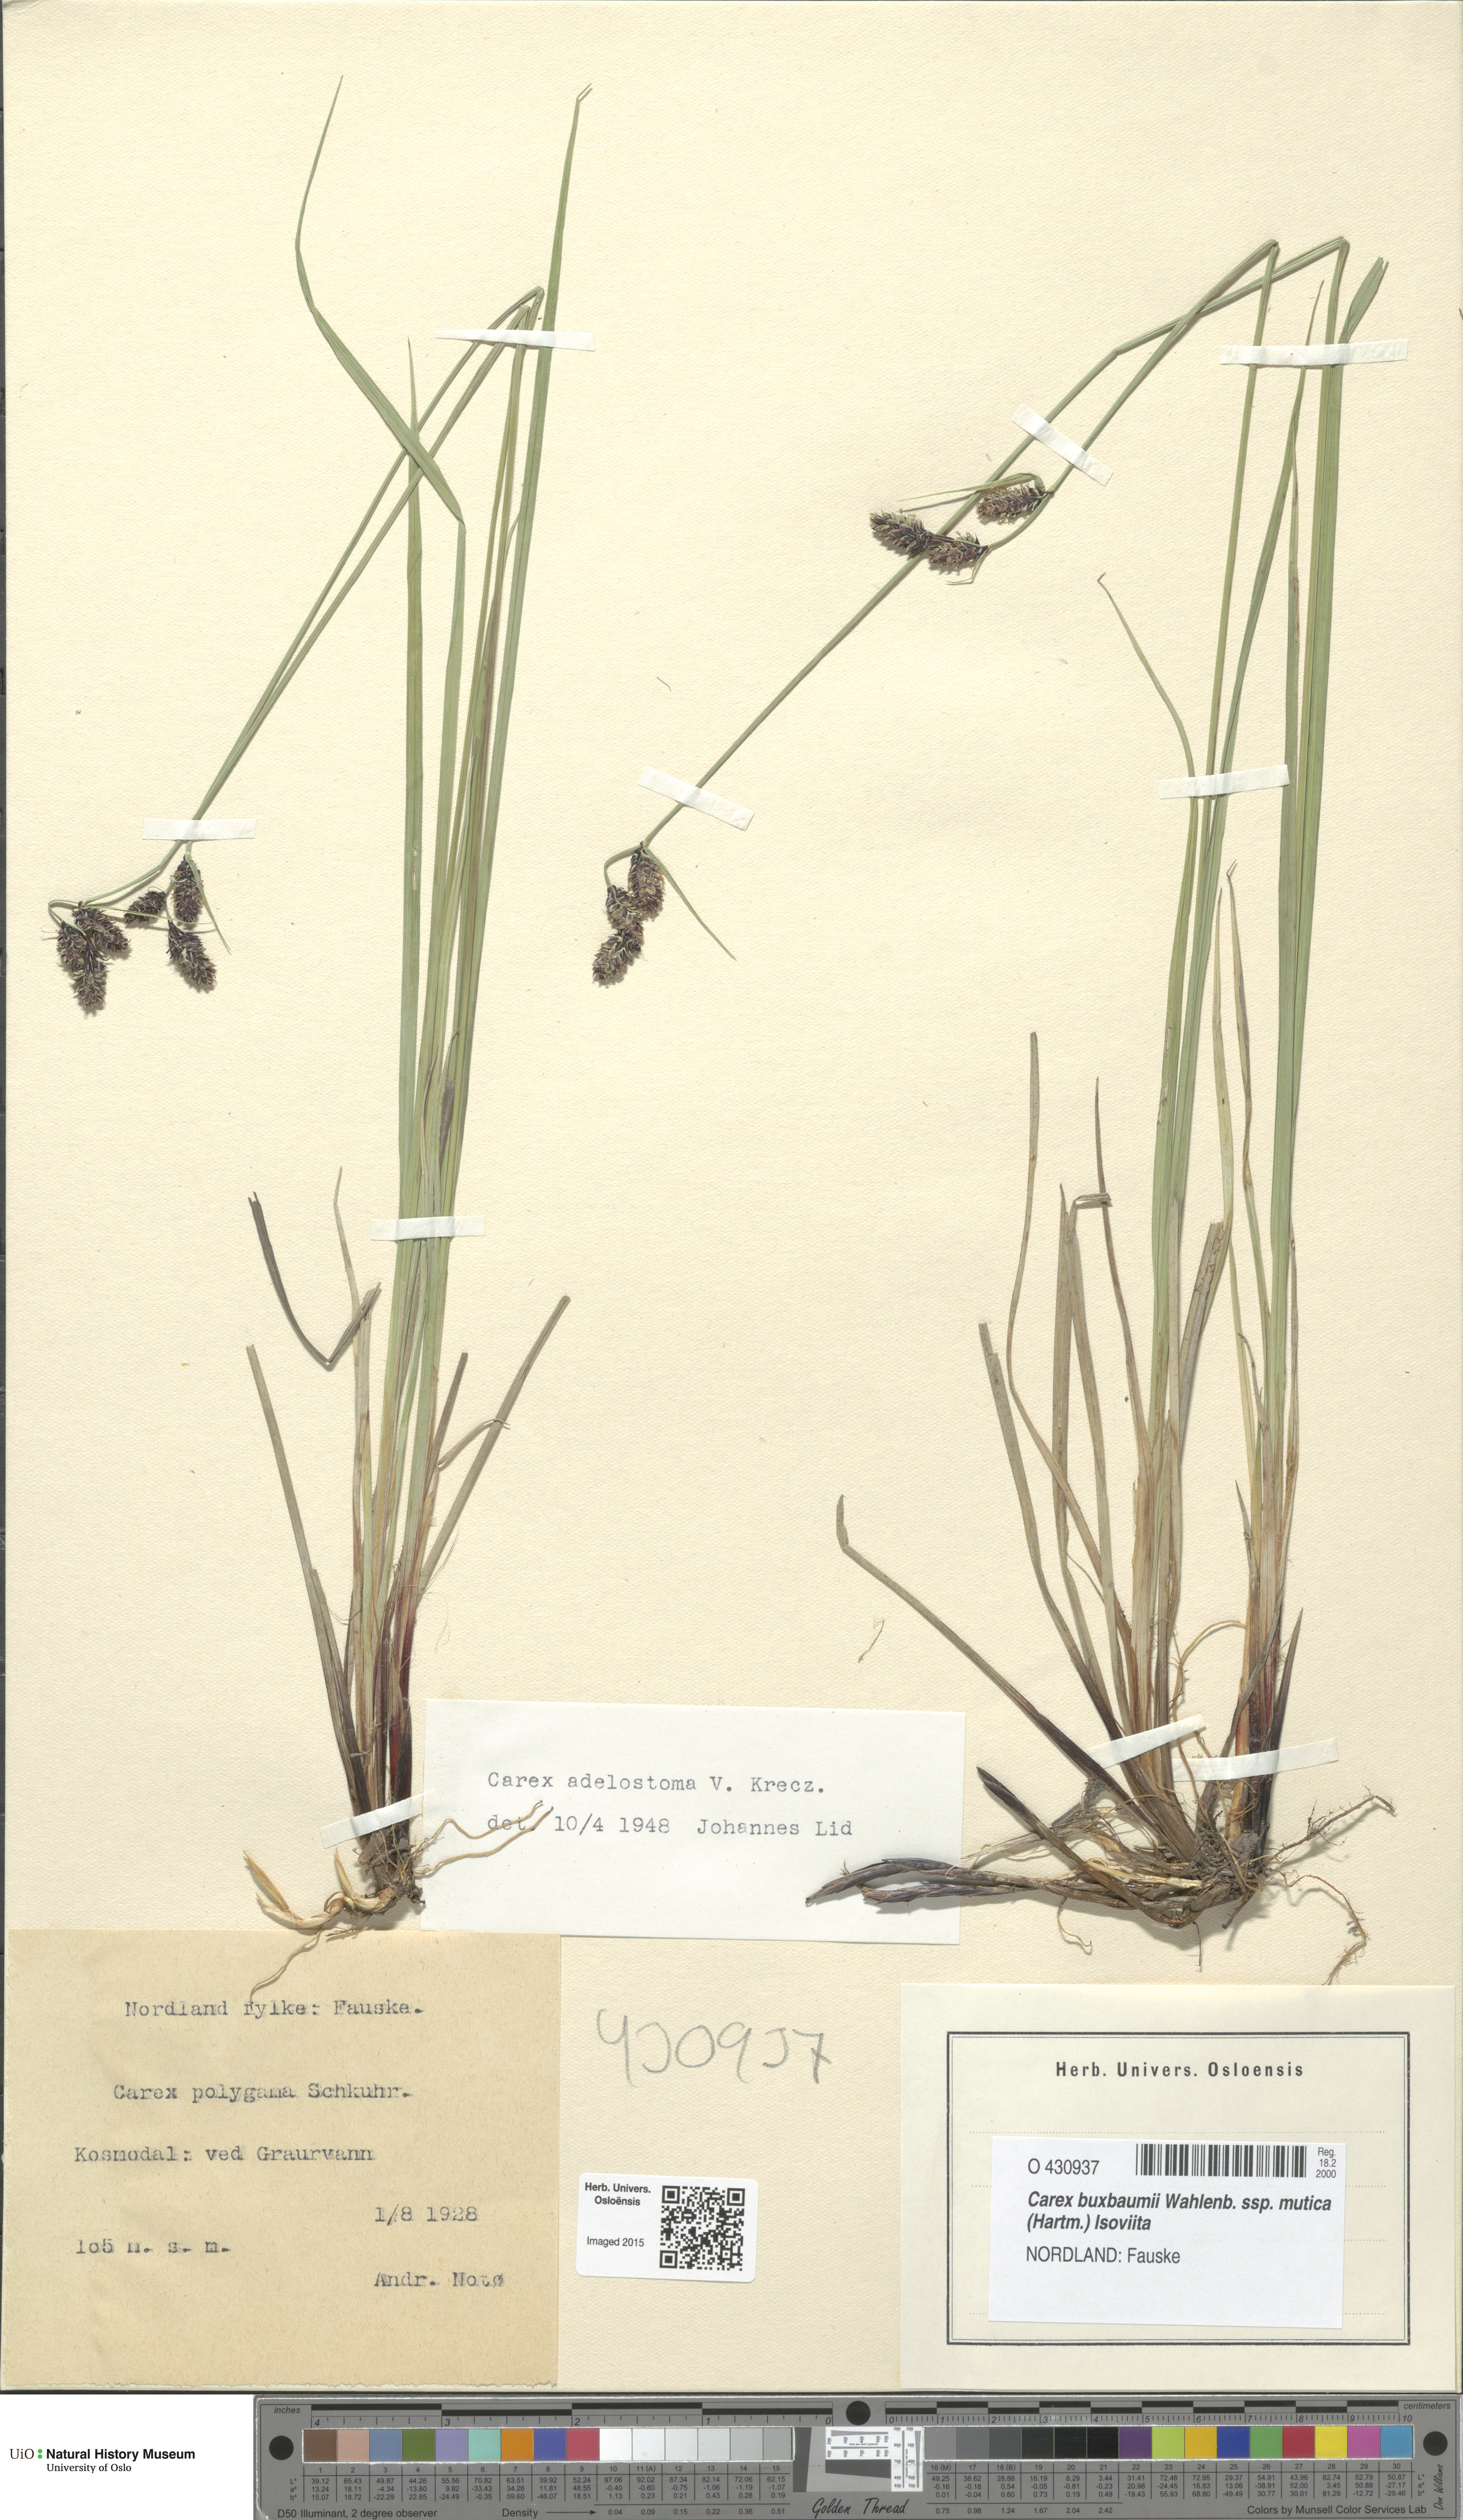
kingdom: Plantae
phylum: Tracheophyta
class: Liliopsida
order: Poales
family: Cyperaceae
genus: Carex
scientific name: Carex adelostoma
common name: Circumpolar sedge
